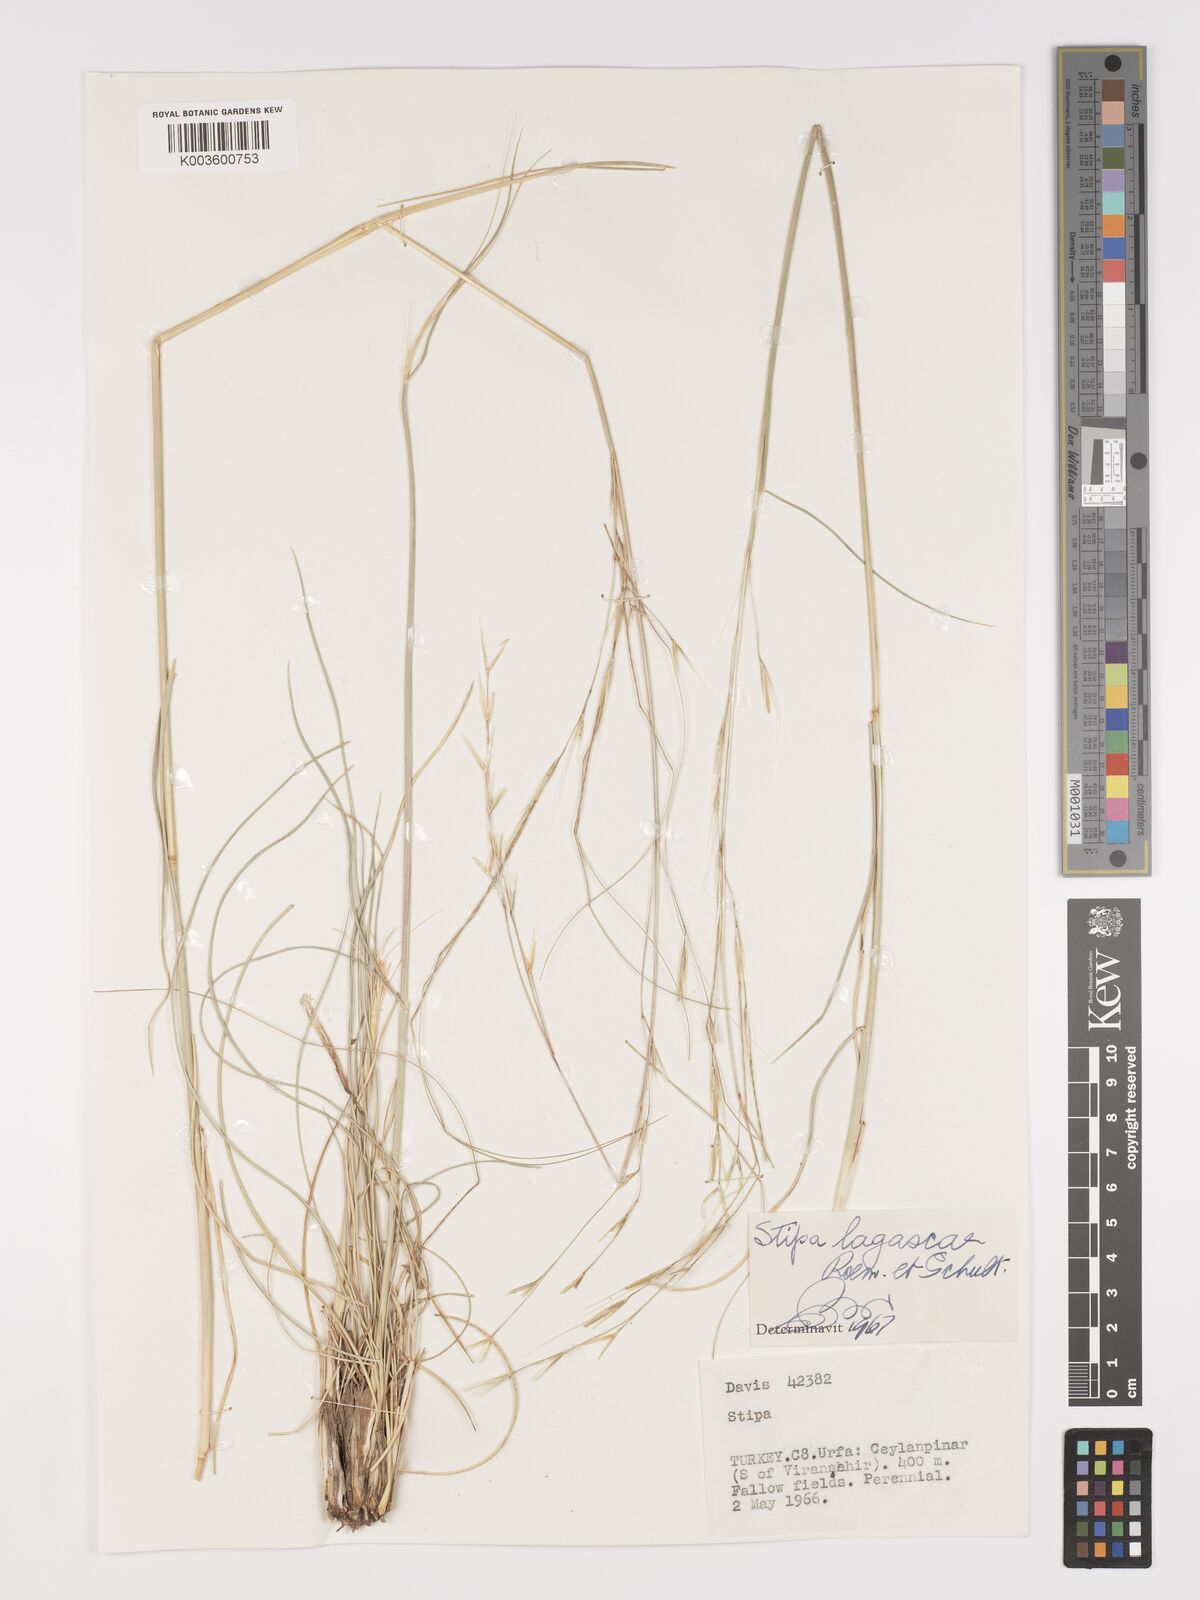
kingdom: Plantae
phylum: Tracheophyta
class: Liliopsida
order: Poales
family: Poaceae
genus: Stipa
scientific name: Stipa lagascae
